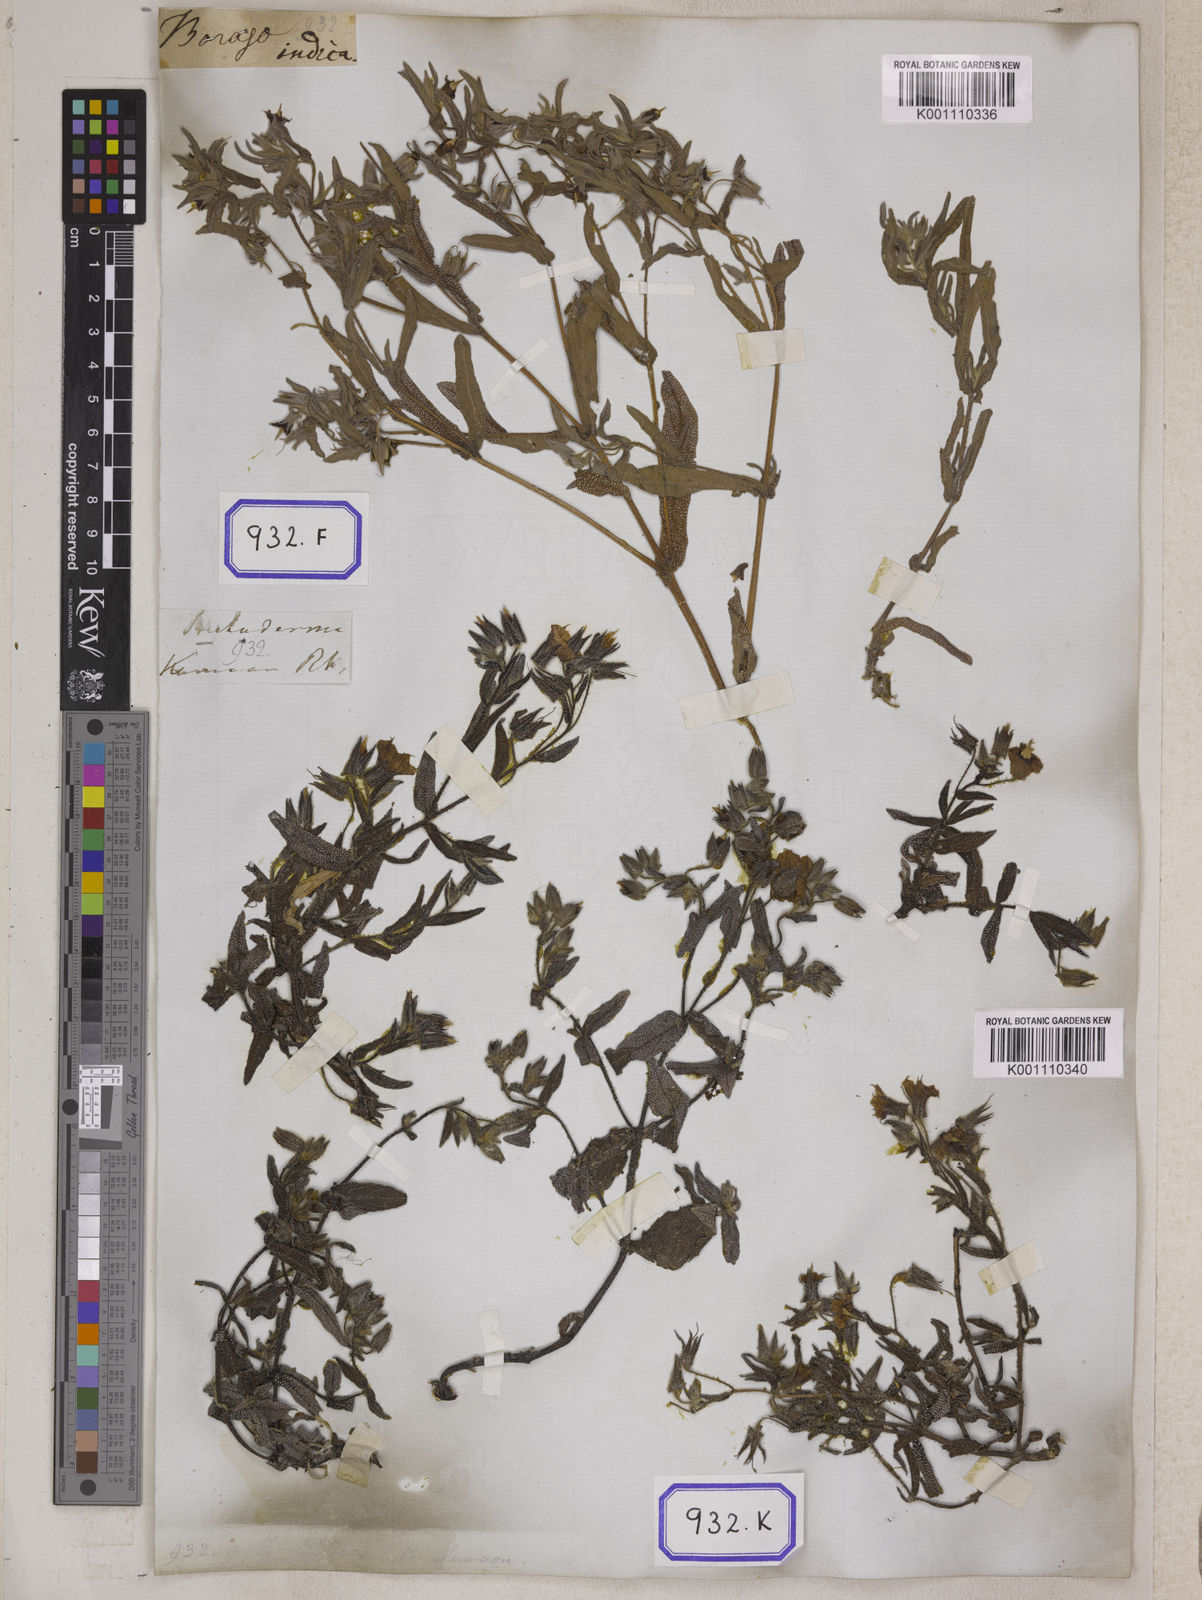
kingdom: Plantae
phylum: Tracheophyta
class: Magnoliopsida
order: Boraginales
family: Boraginaceae
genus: Trichodesma
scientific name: Trichodesma
